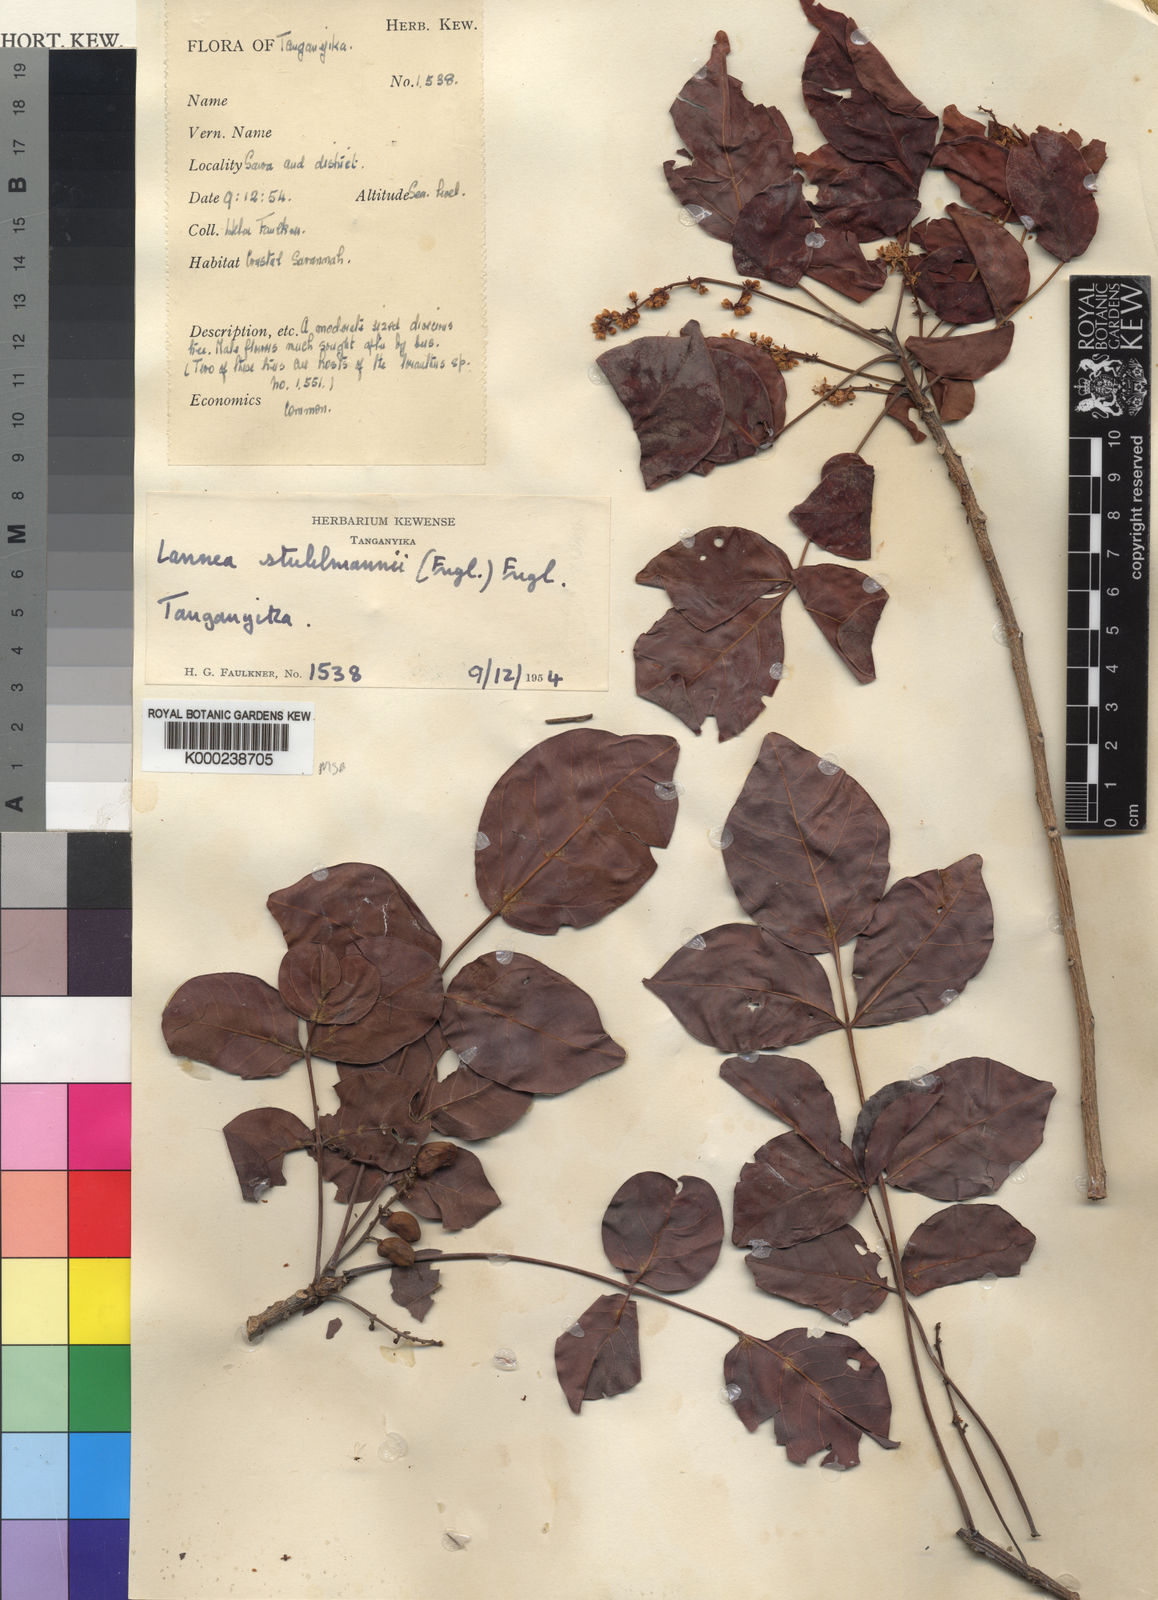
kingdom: Plantae
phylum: Tracheophyta
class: Magnoliopsida
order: Sapindales
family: Anacardiaceae
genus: Lannea
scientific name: Lannea schweinfurthii
